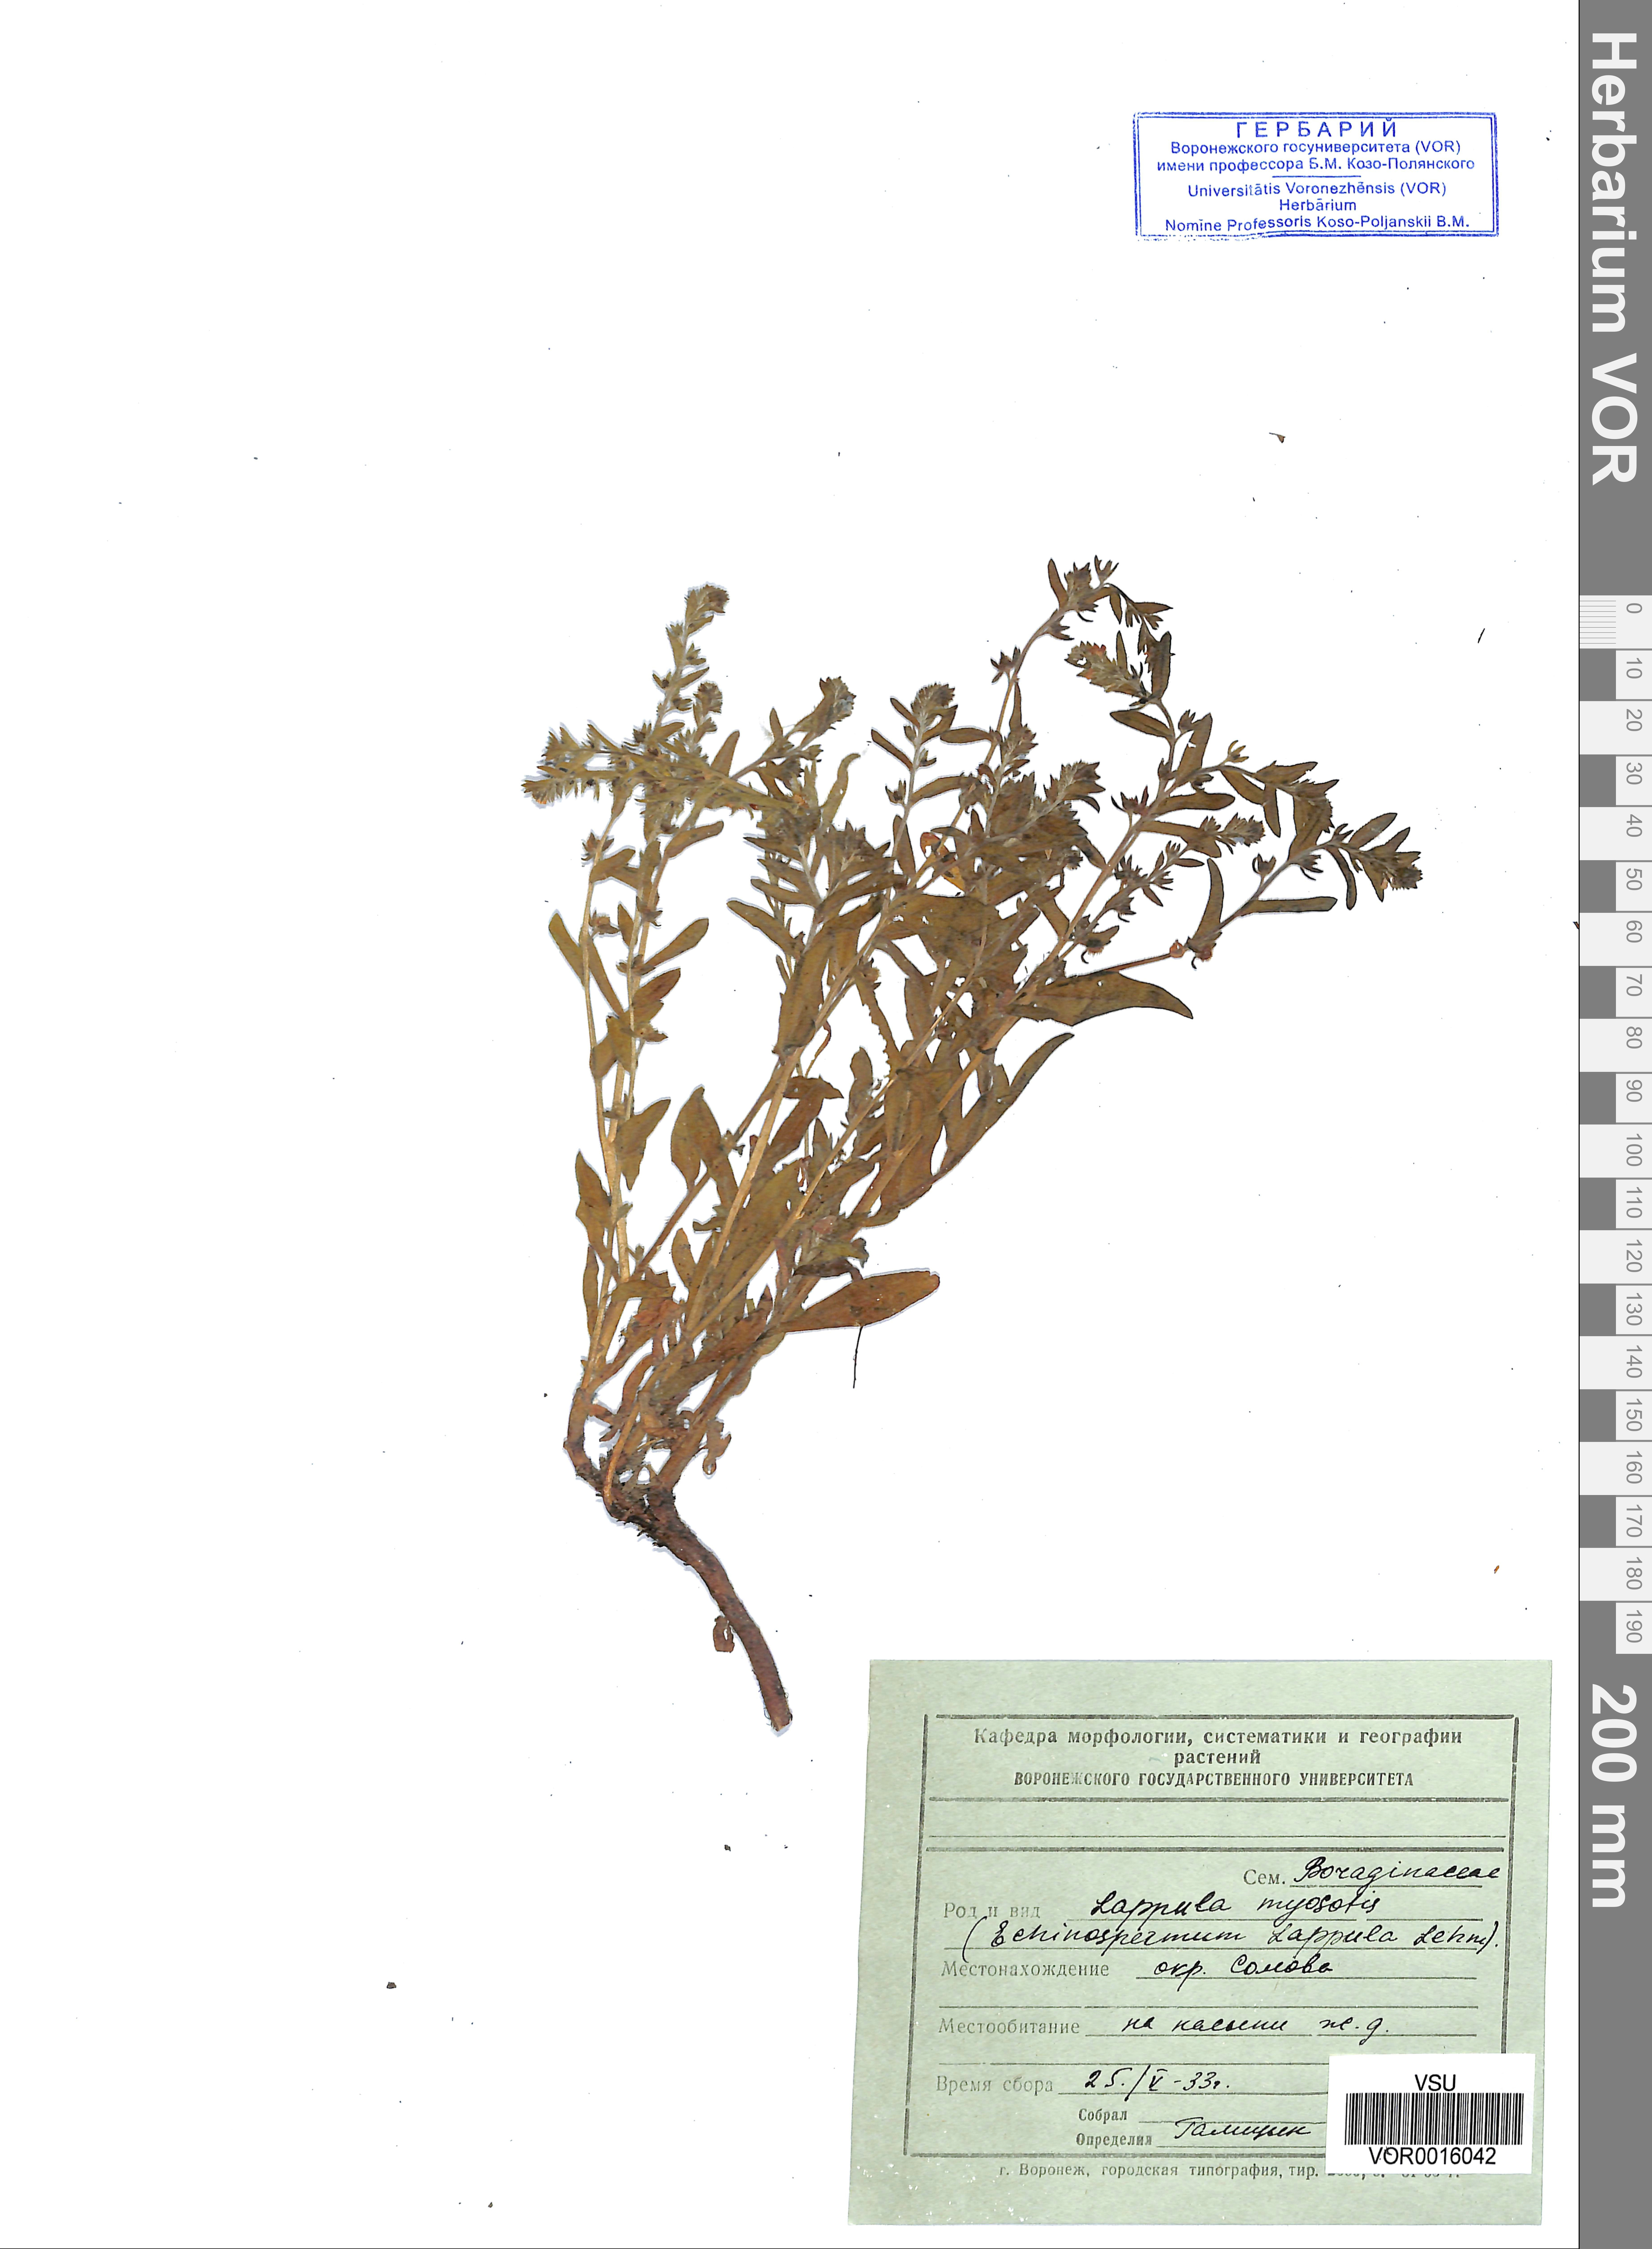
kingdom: Plantae
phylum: Tracheophyta
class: Magnoliopsida
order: Boraginales
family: Boraginaceae
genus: Lappula
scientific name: Lappula squarrosa
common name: European stickseed
